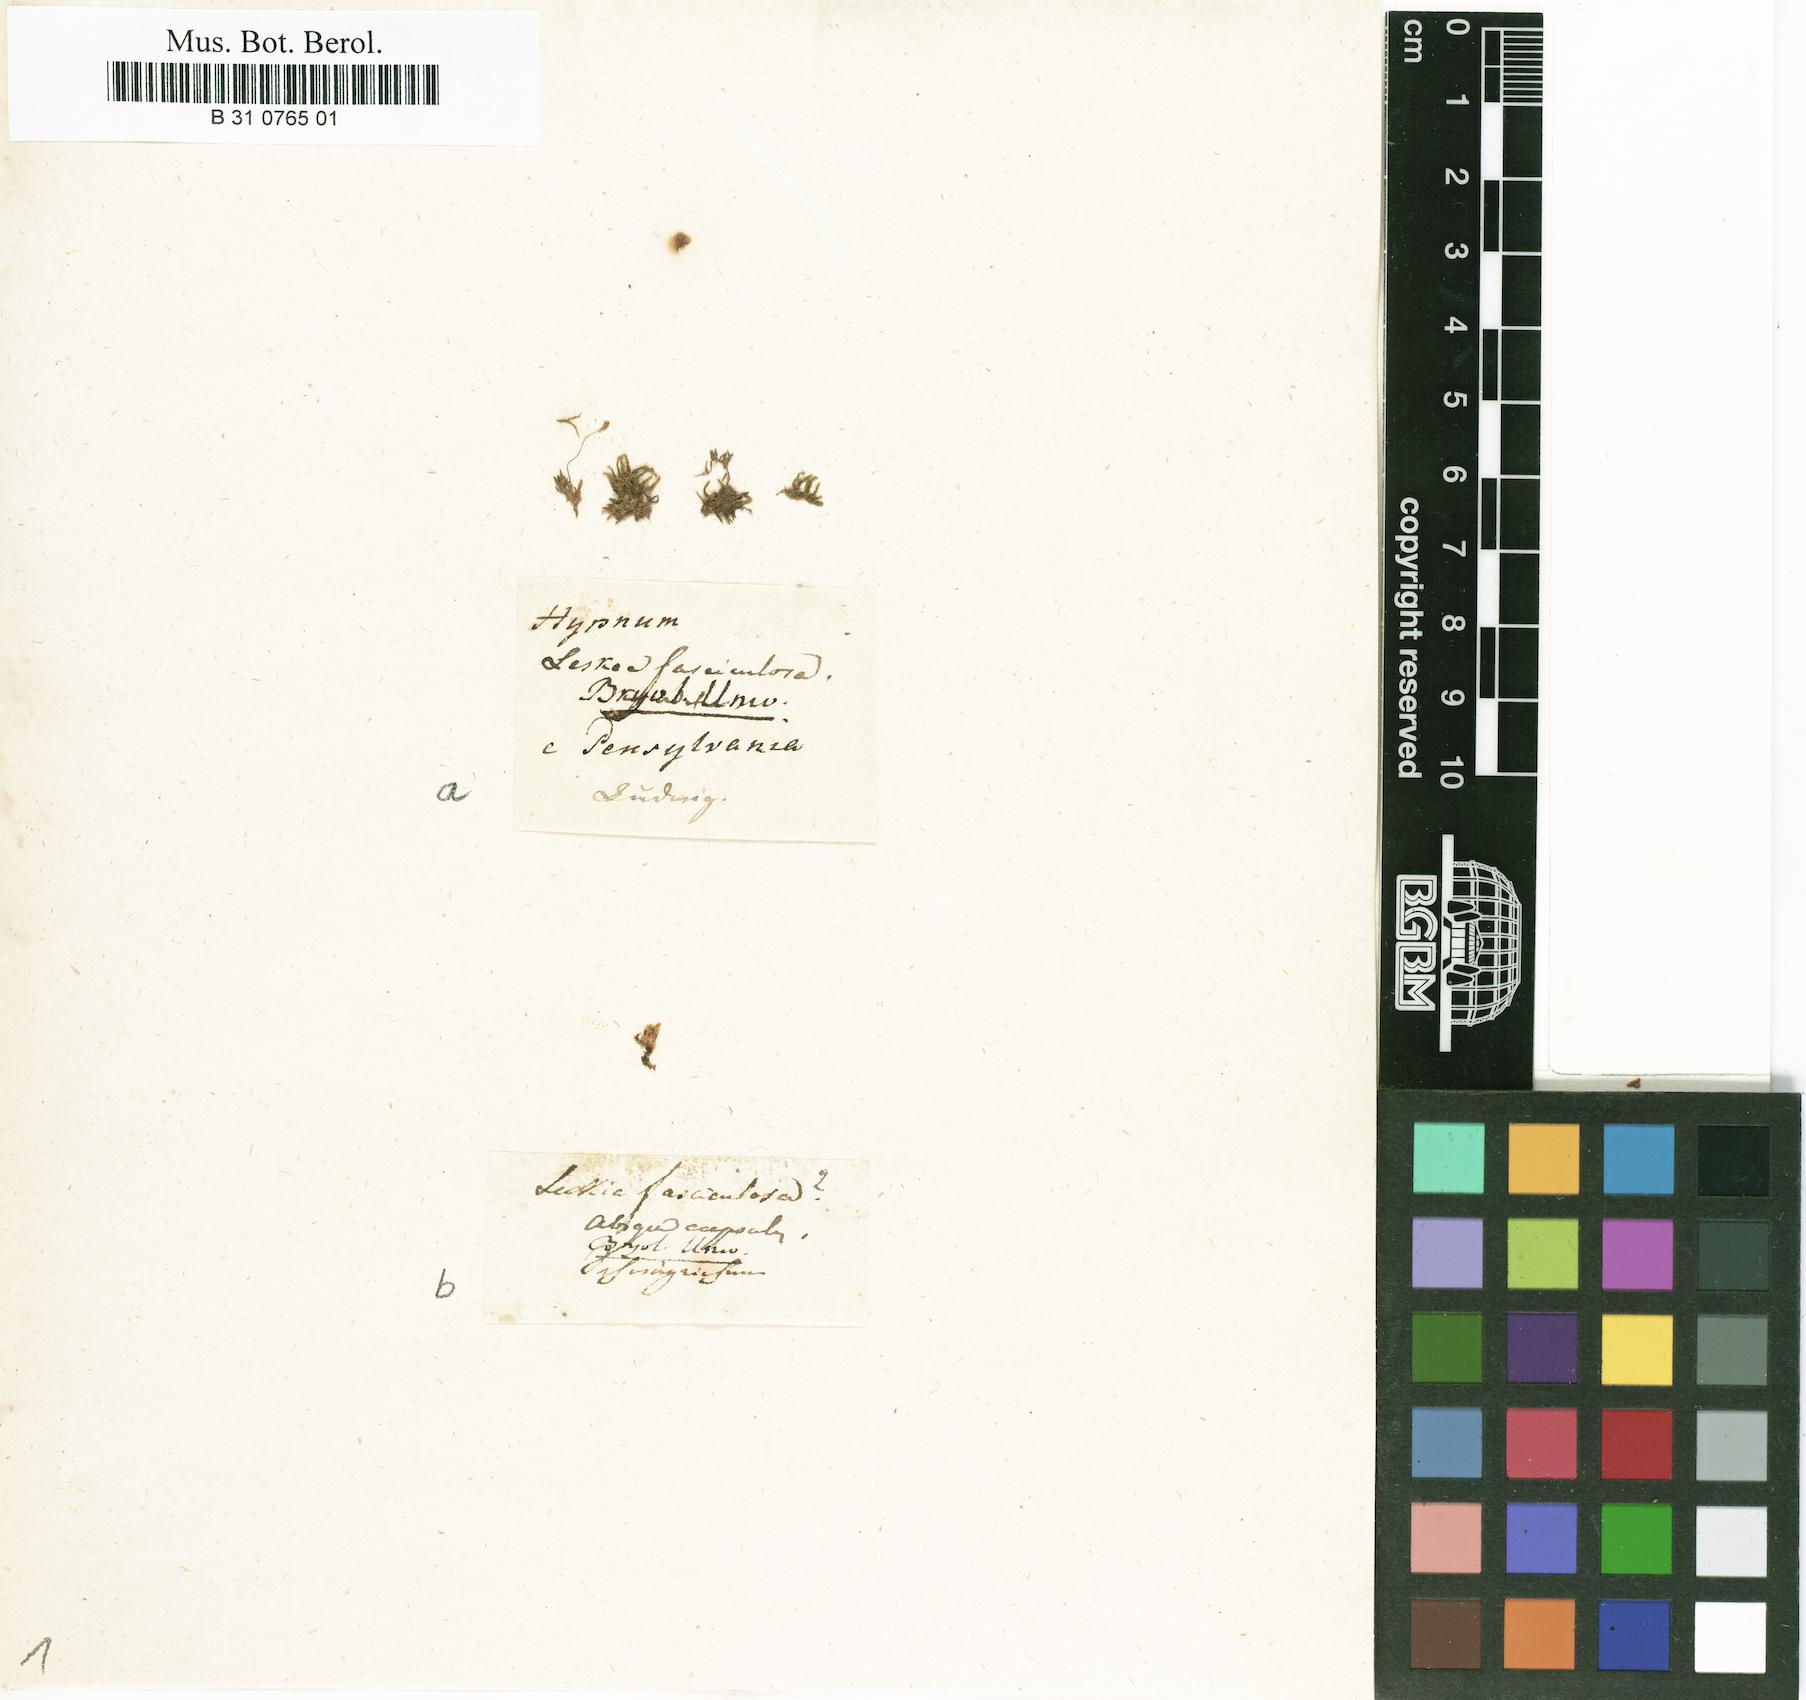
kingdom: Plantae
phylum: Bryophyta
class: Bryopsida
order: Hypnales
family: Brachytheciaceae
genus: Eurhynchiastrum
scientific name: Eurhynchiastrum pulchellum
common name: Elegant beaked moss
